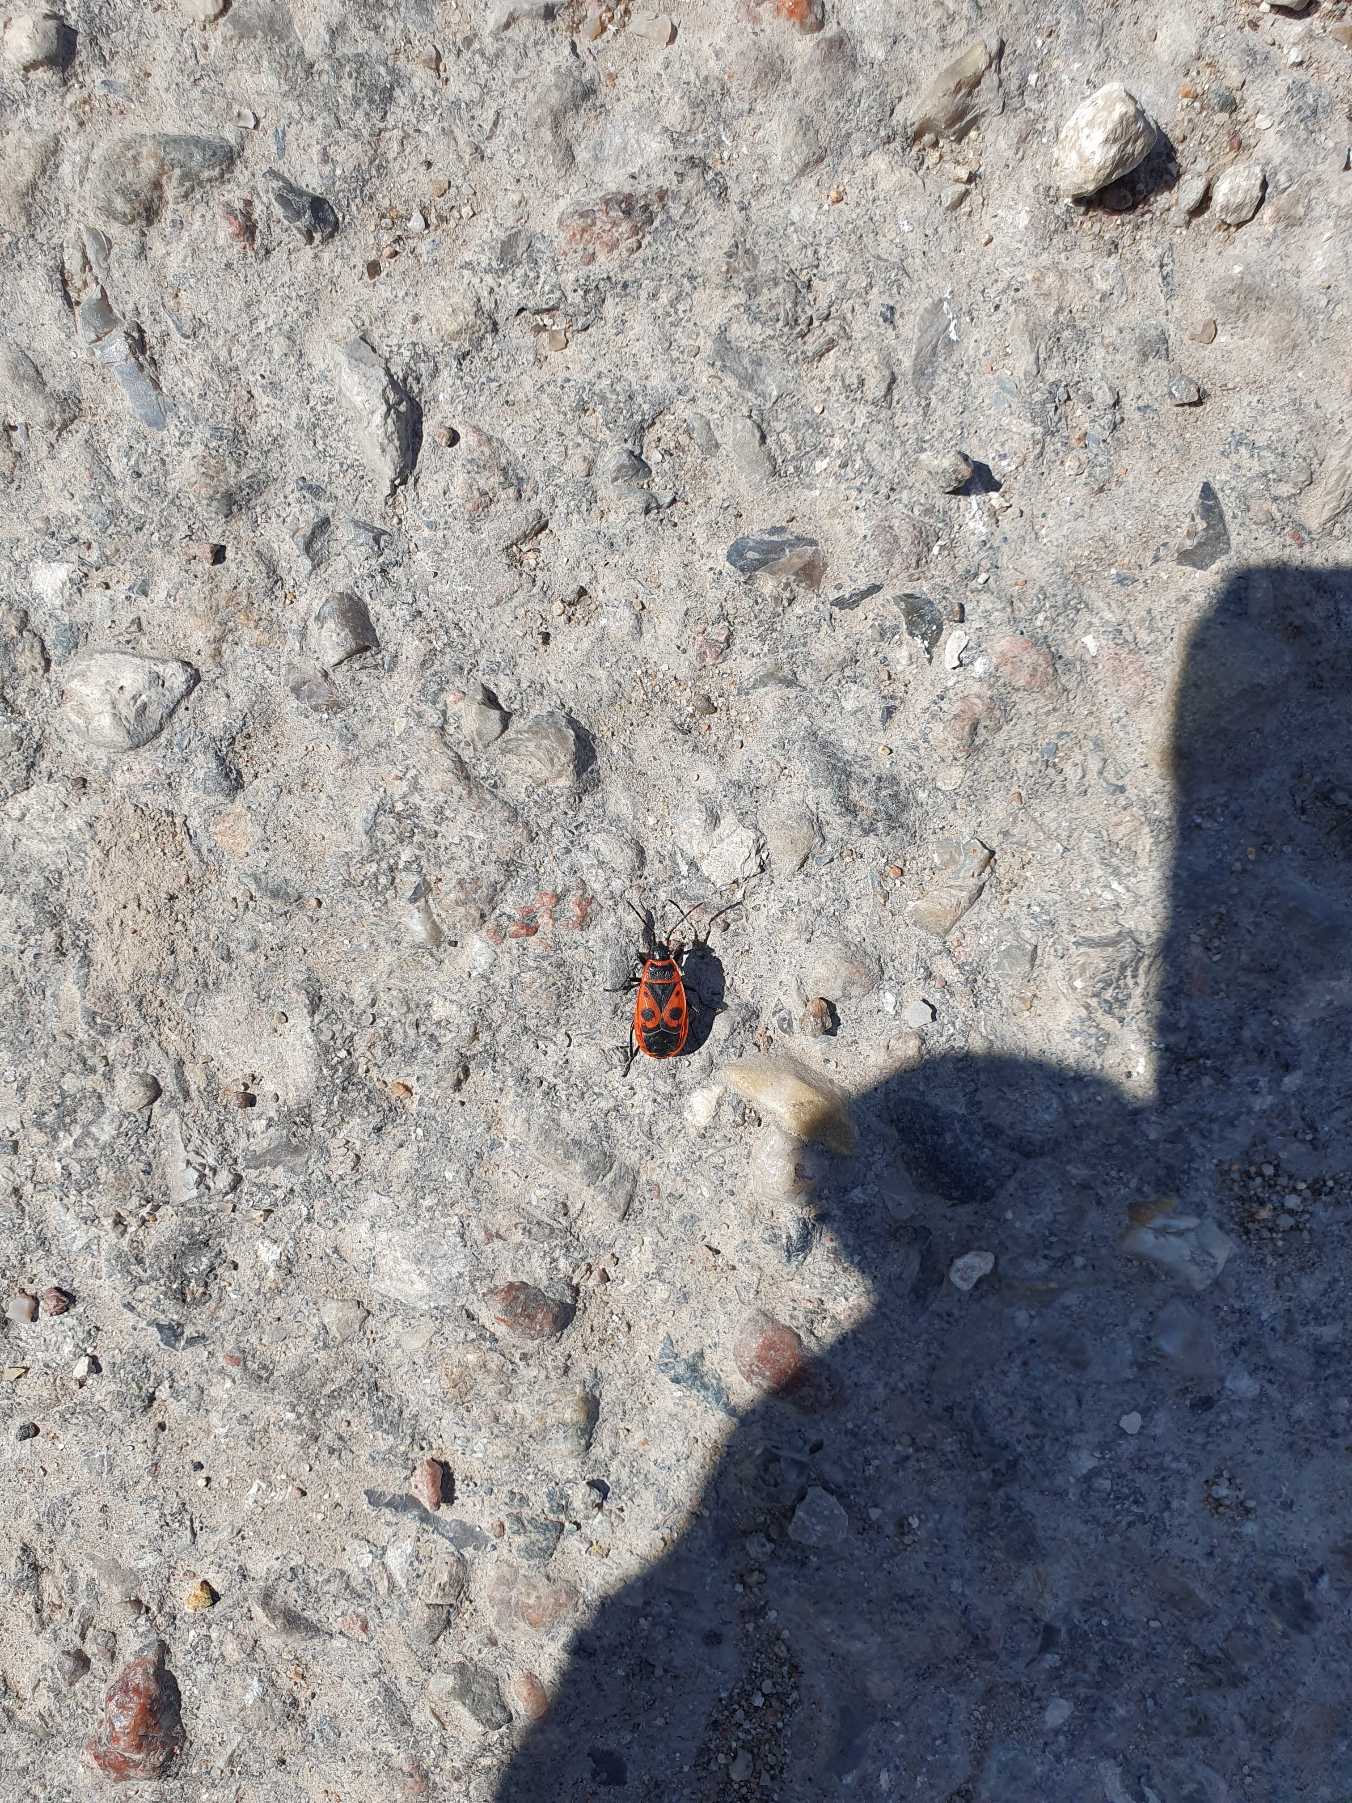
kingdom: Animalia
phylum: Arthropoda
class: Insecta
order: Hemiptera
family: Pyrrhocoridae
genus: Pyrrhocoris
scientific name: Pyrrhocoris apterus
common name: Ildtæge
